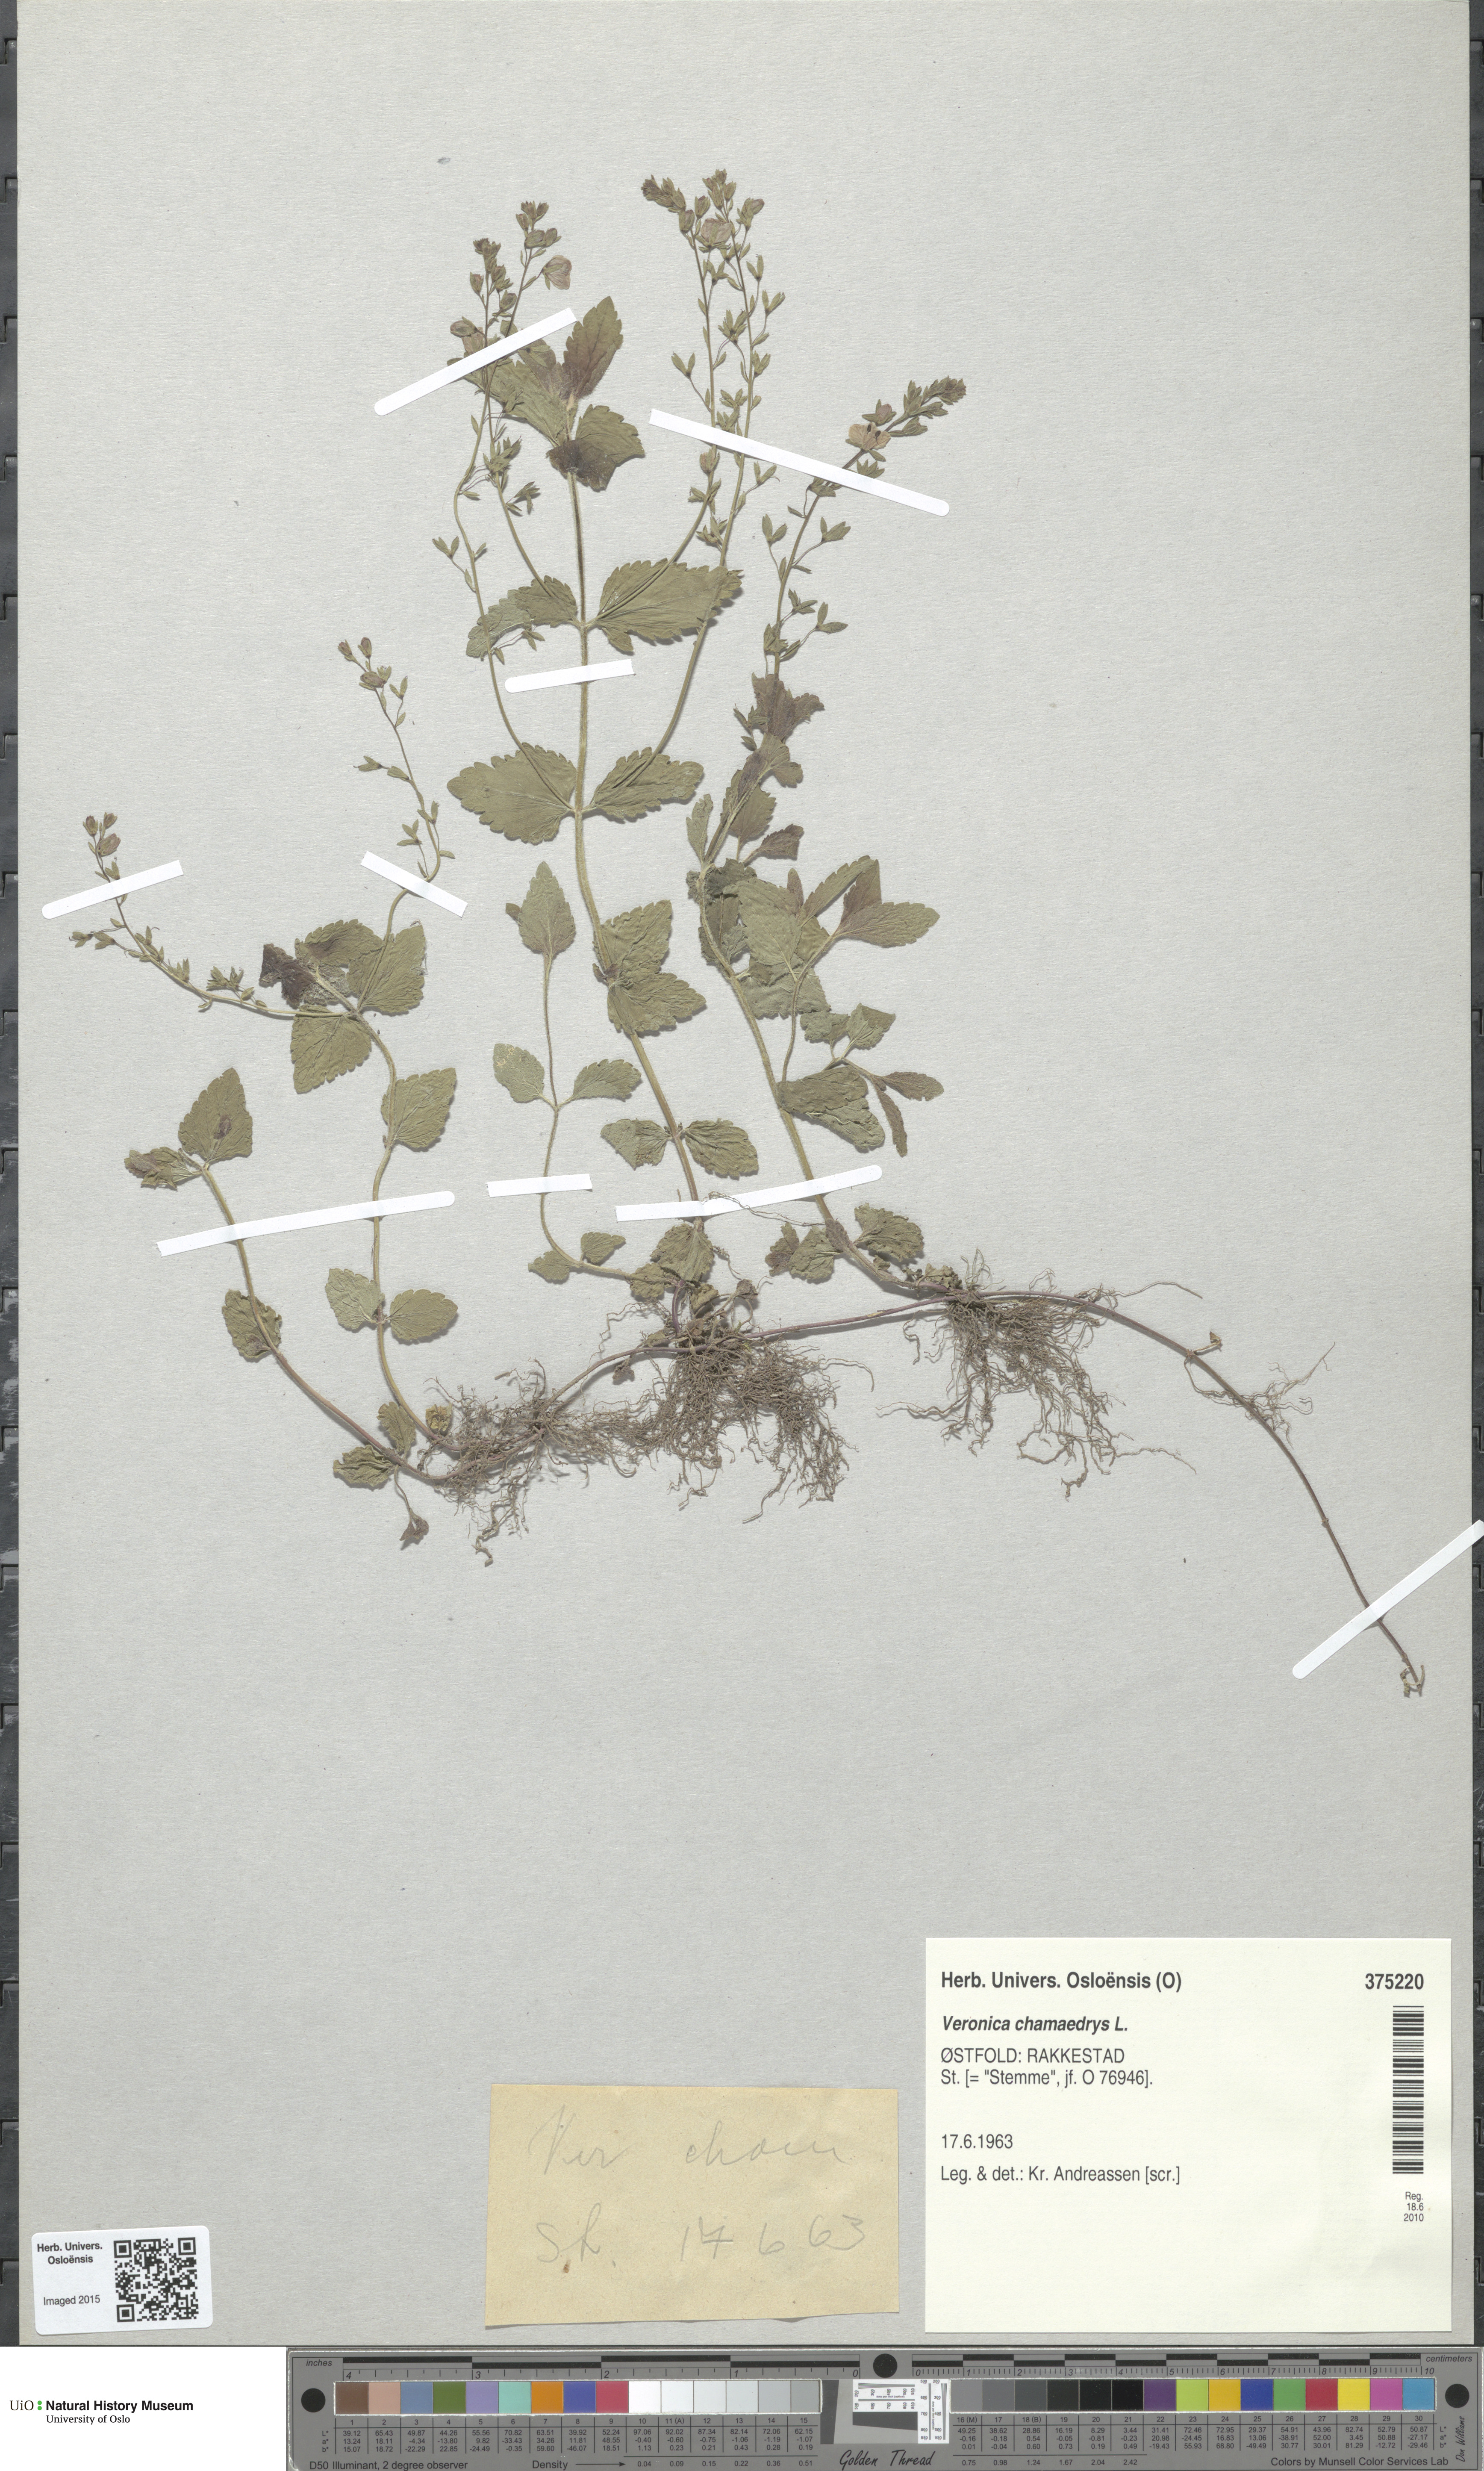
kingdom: Plantae
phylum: Tracheophyta
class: Magnoliopsida
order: Lamiales
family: Plantaginaceae
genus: Veronica
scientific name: Veronica chamaedrys
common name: Germander speedwell
